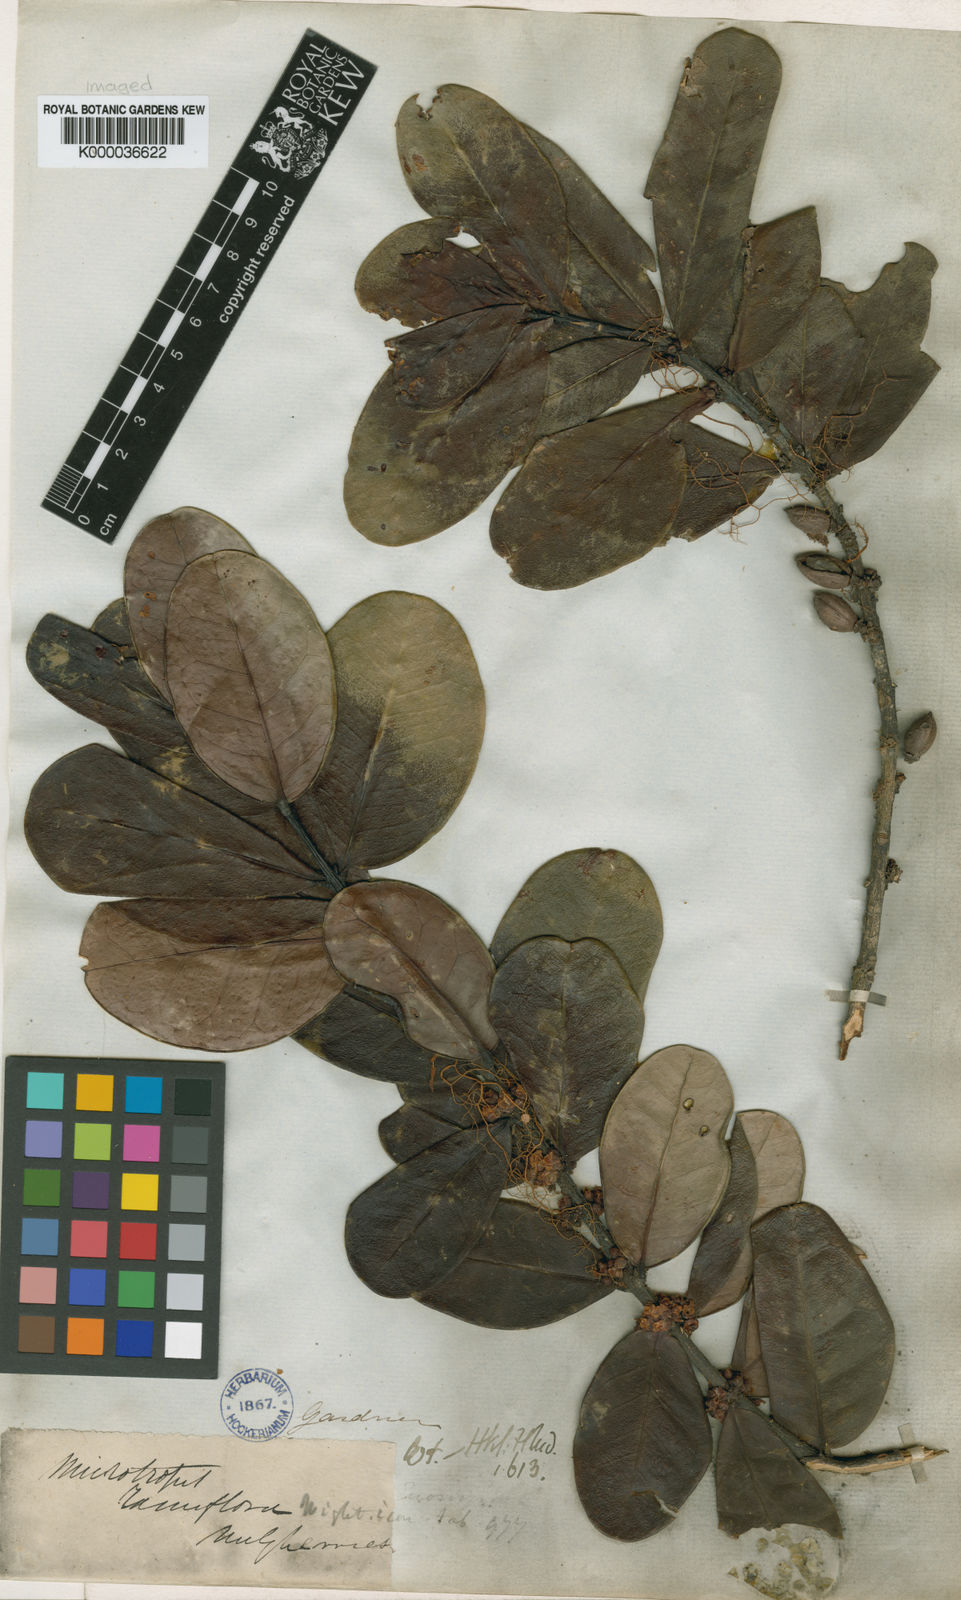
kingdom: Plantae
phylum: Tracheophyta
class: Magnoliopsida
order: Celastrales
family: Celastraceae
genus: Microtropis
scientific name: Microtropis ramiflora
